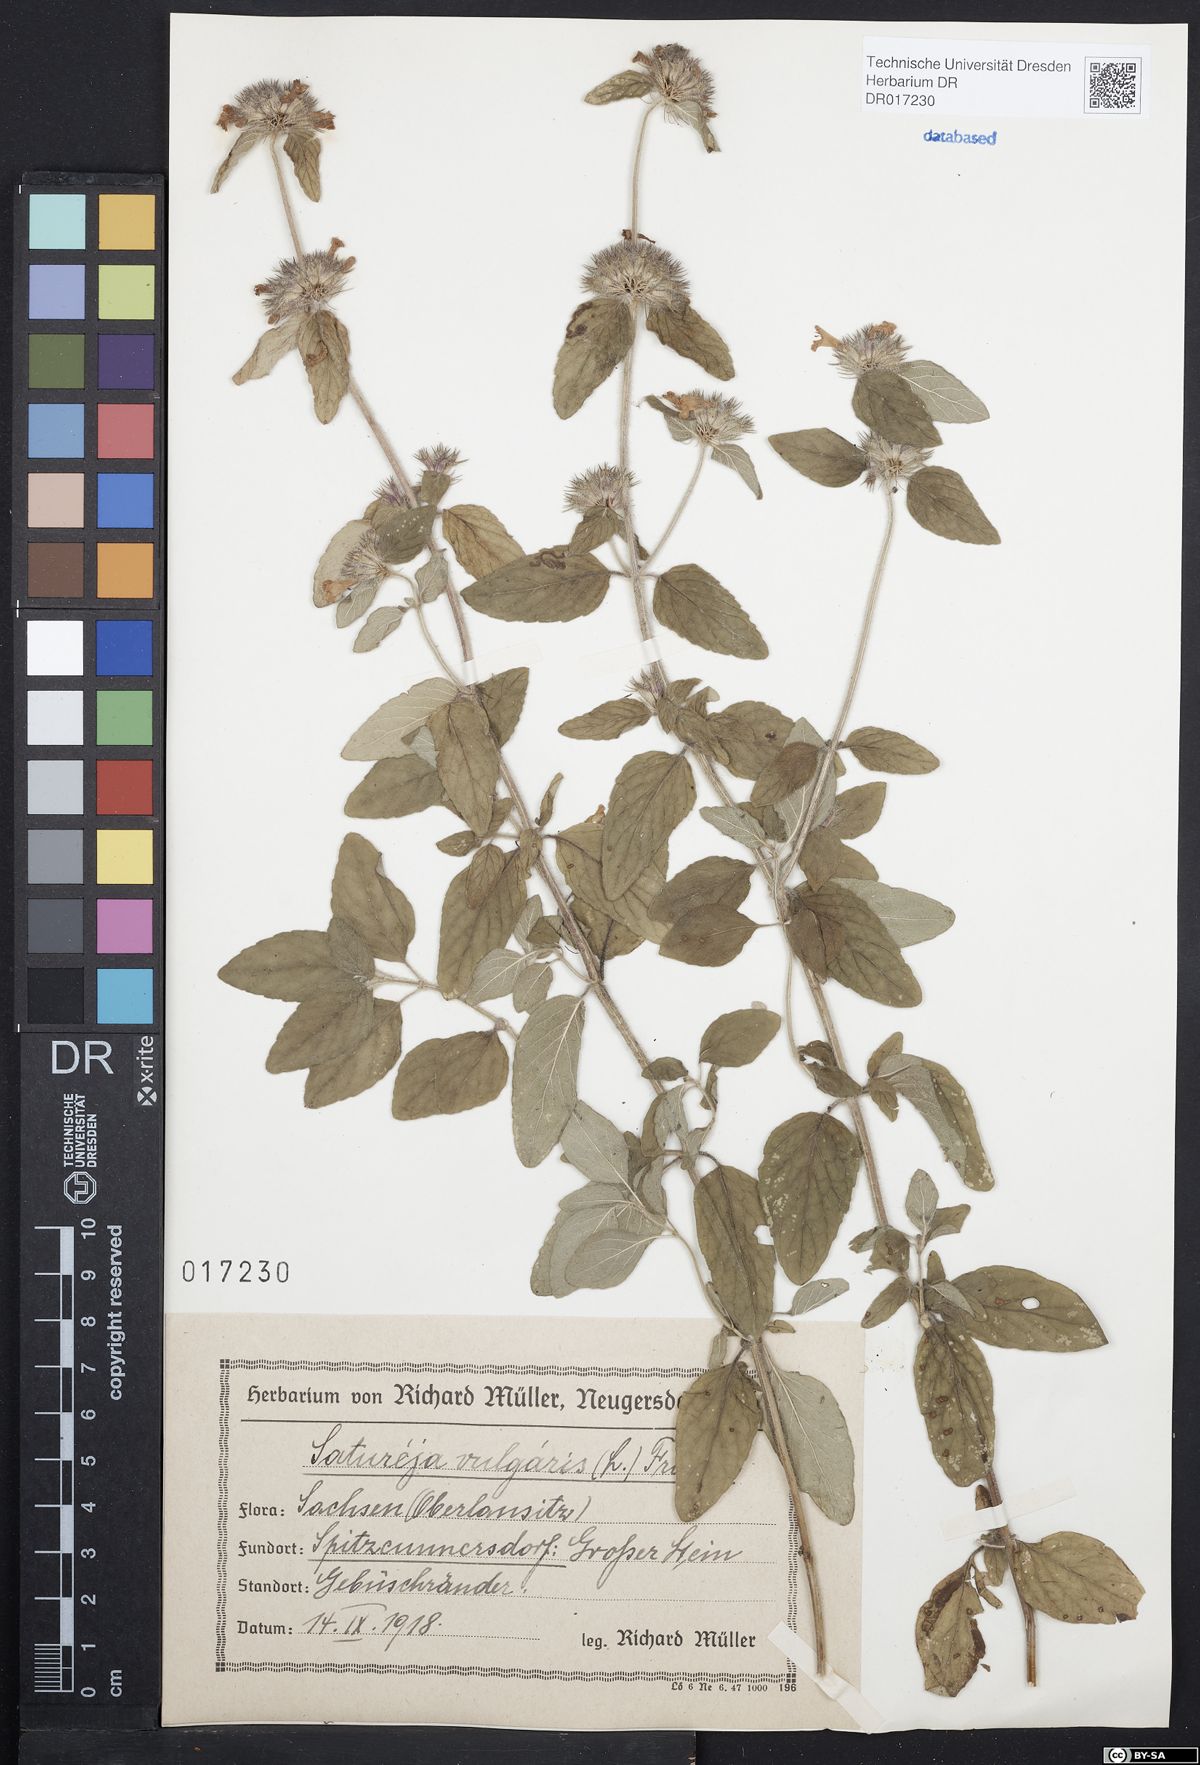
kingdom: Plantae
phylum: Tracheophyta
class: Magnoliopsida
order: Lamiales
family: Lamiaceae
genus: Clinopodium
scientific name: Clinopodium vulgare
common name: Wild basil
